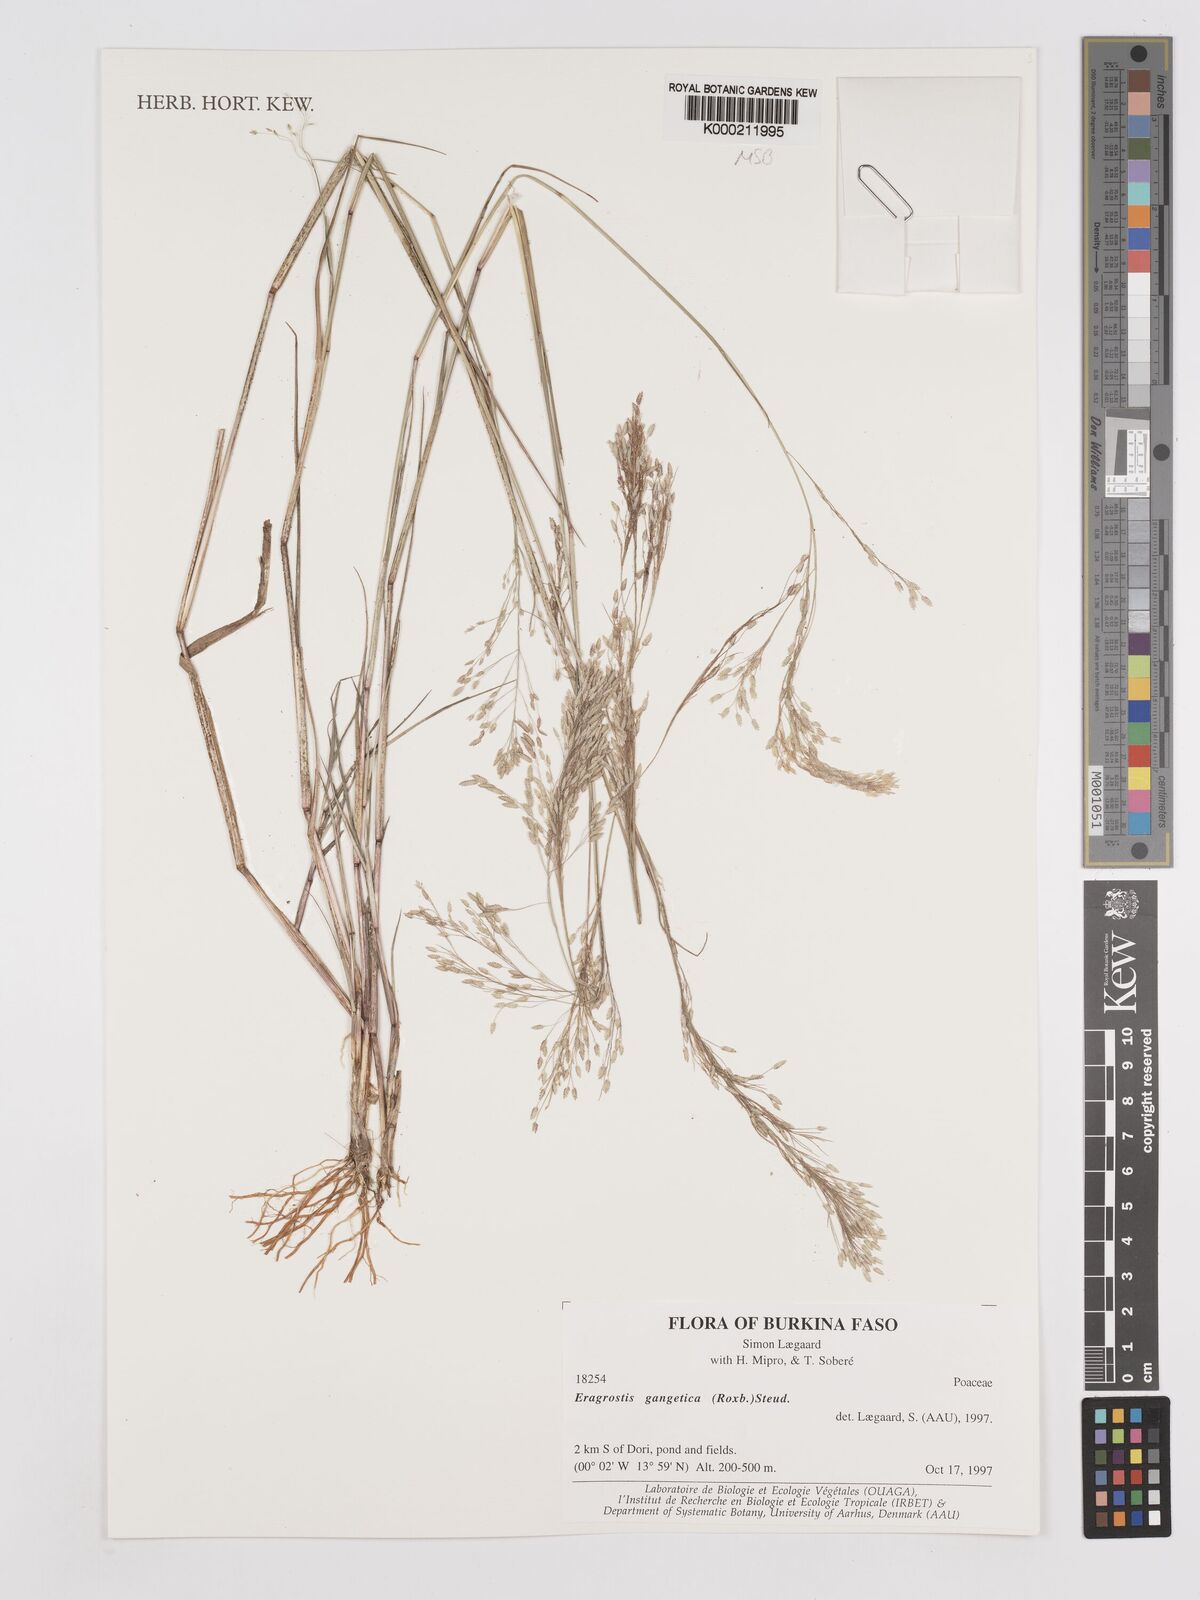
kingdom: Plantae
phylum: Tracheophyta
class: Liliopsida
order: Poales
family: Poaceae
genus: Eragrostis
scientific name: Eragrostis gangetica
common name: Slimflower lovegrass
